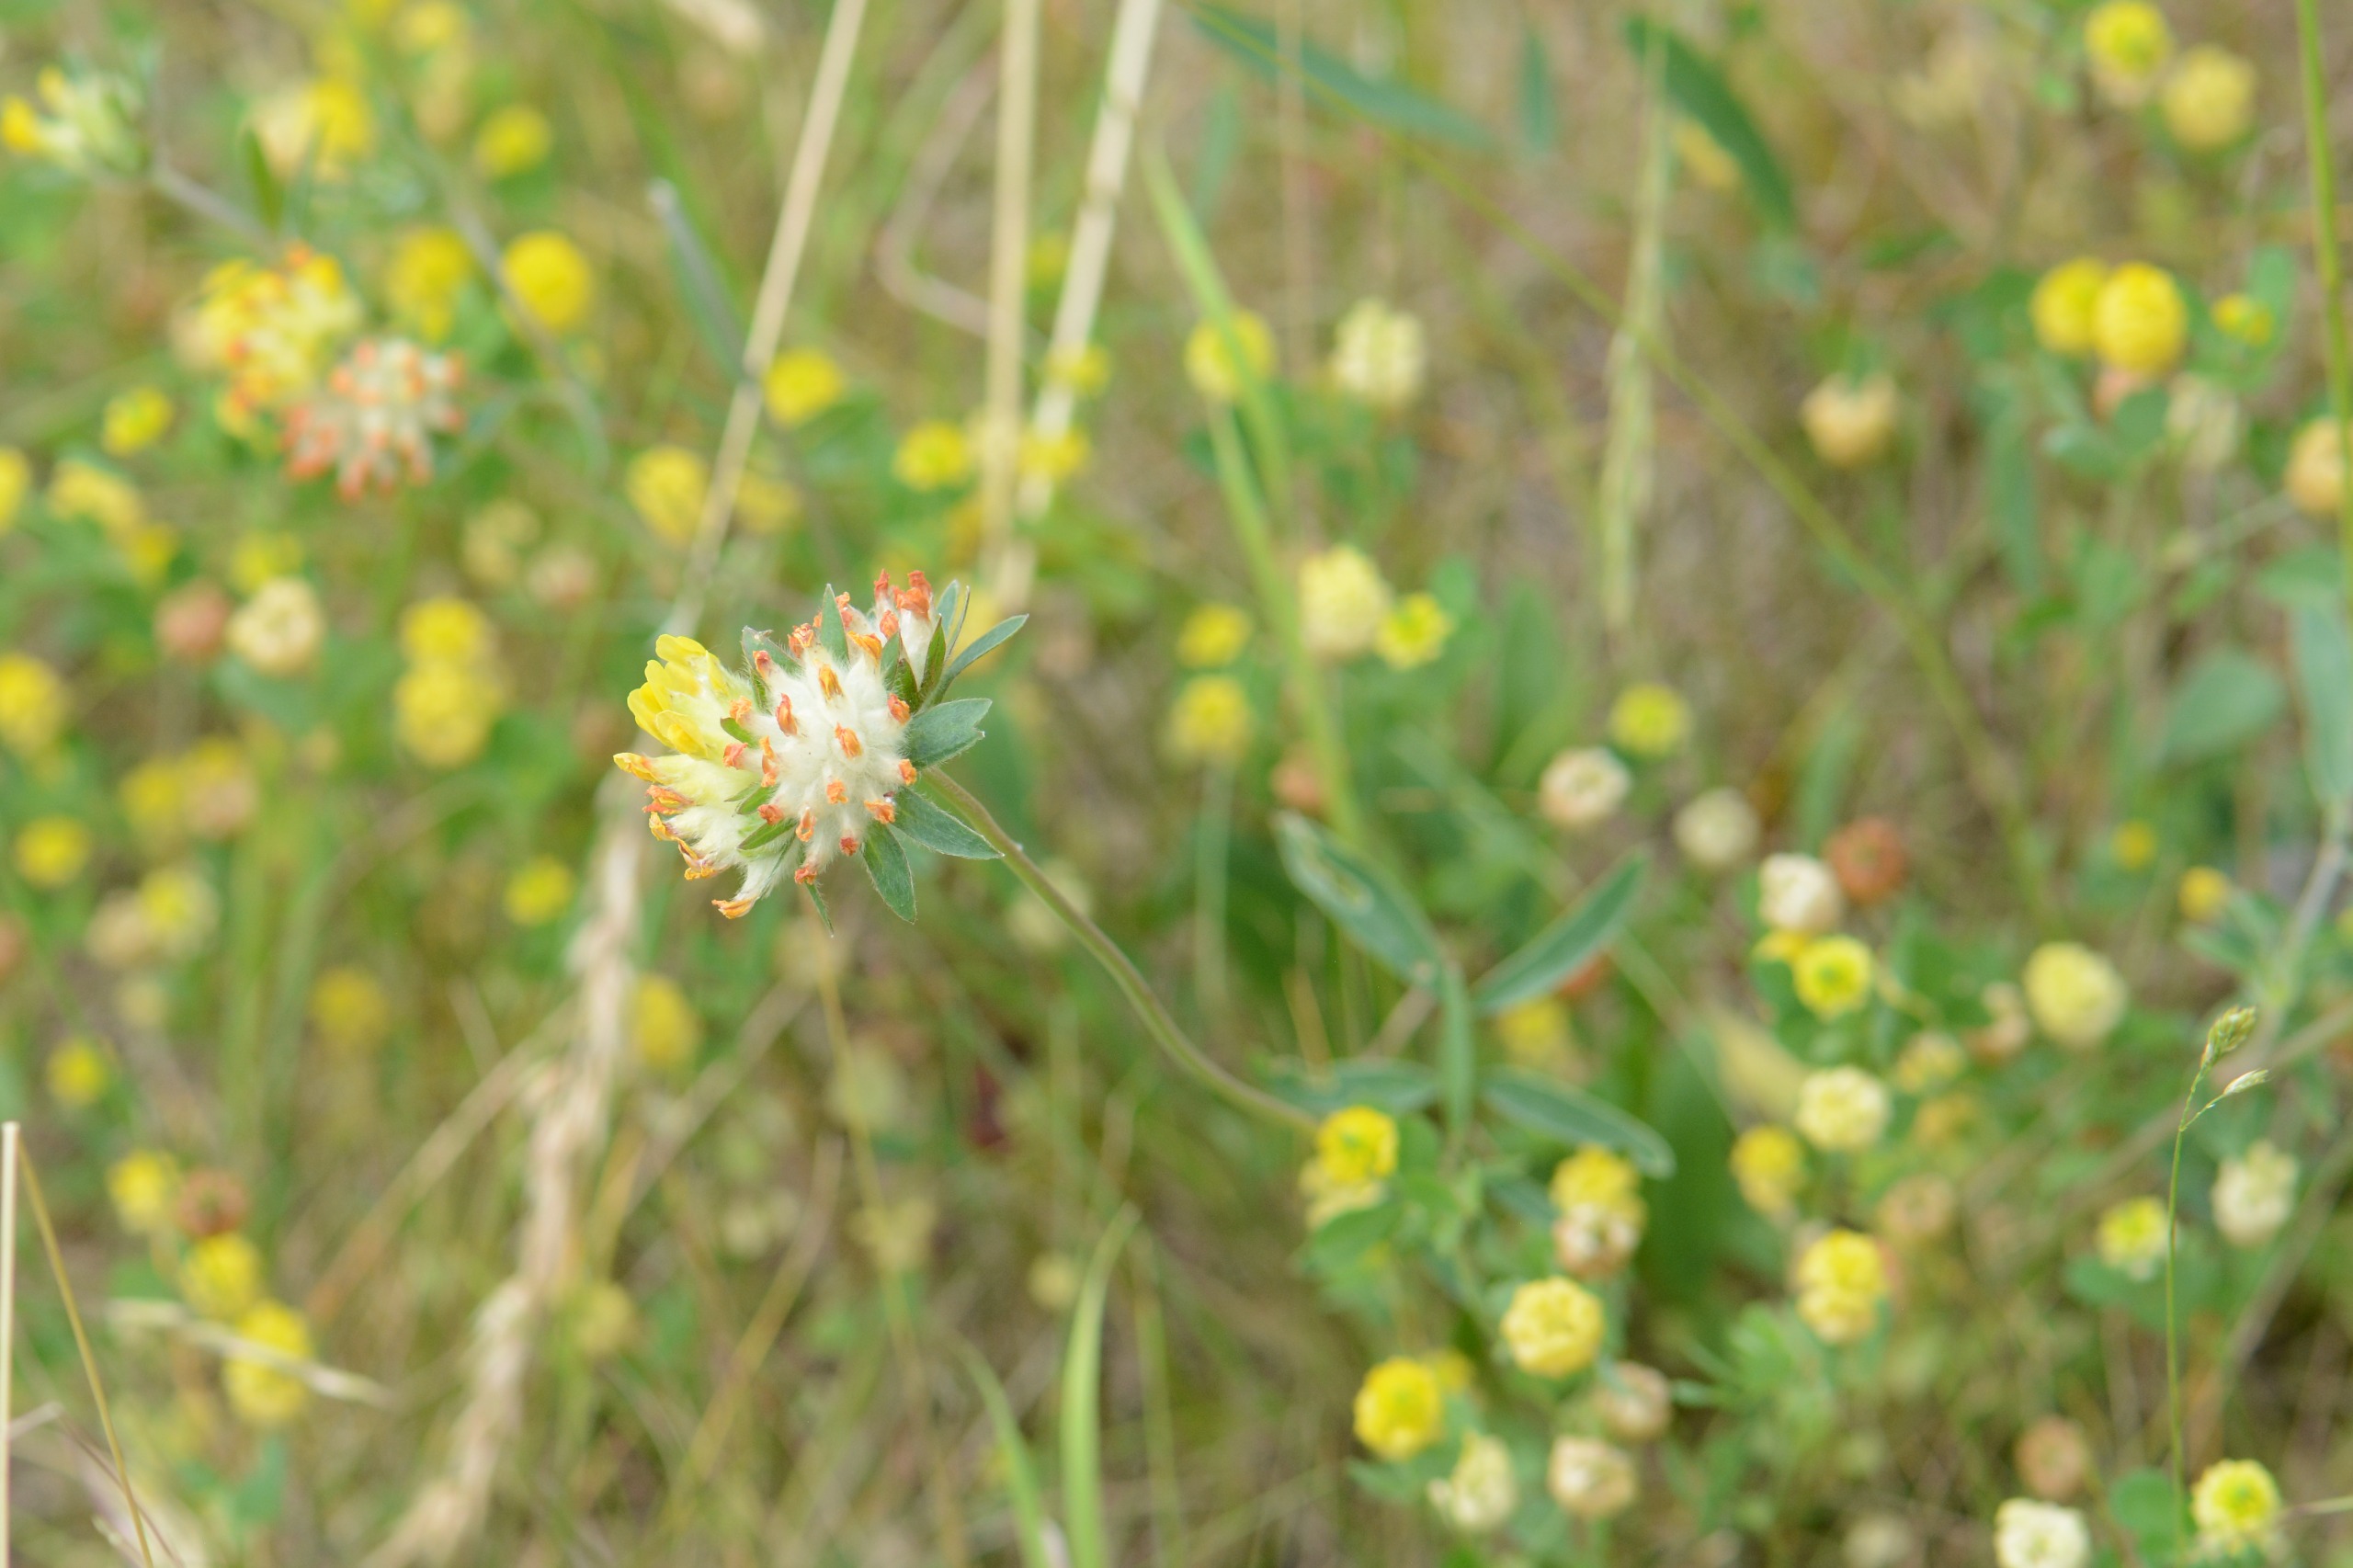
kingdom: Plantae
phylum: Tracheophyta
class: Magnoliopsida
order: Fabales
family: Fabaceae
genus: Anthyllis
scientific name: Anthyllis vulneraria
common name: Rundbælg
